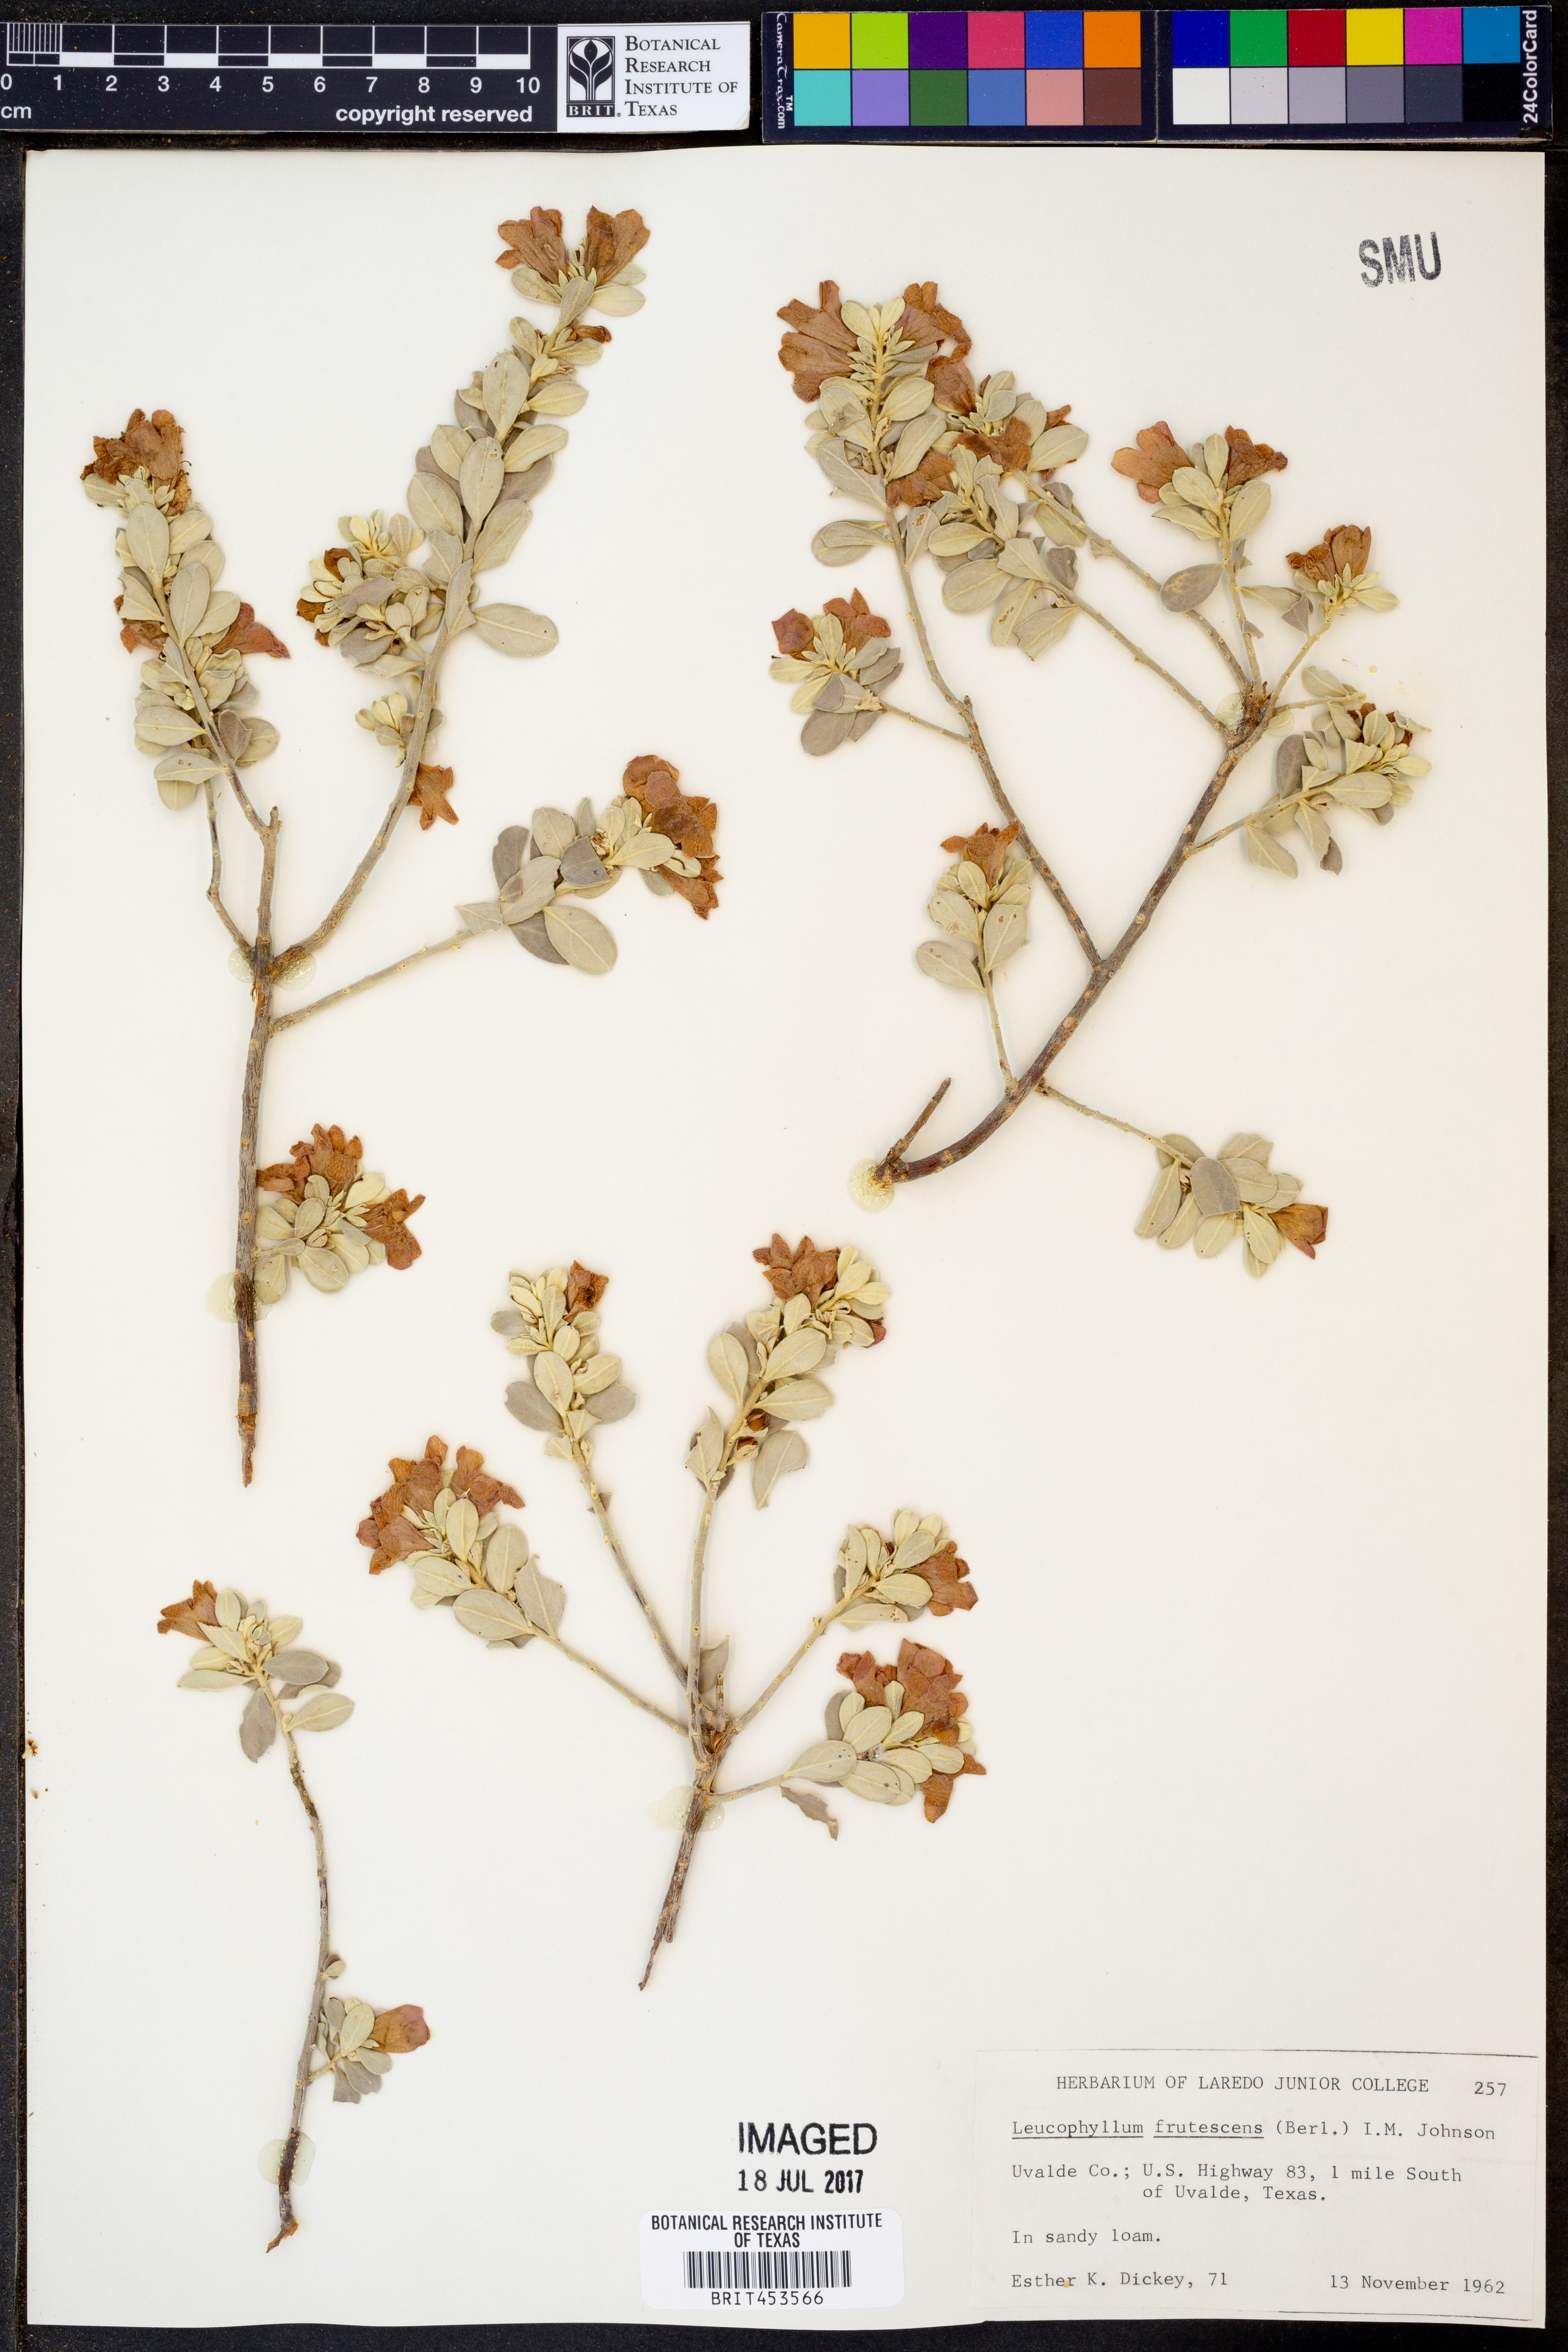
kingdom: Plantae
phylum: Tracheophyta
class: Magnoliopsida
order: Lamiales
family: Scrophulariaceae
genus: Leucophyllum
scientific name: Leucophyllum frutescens
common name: Texas silverleaf
